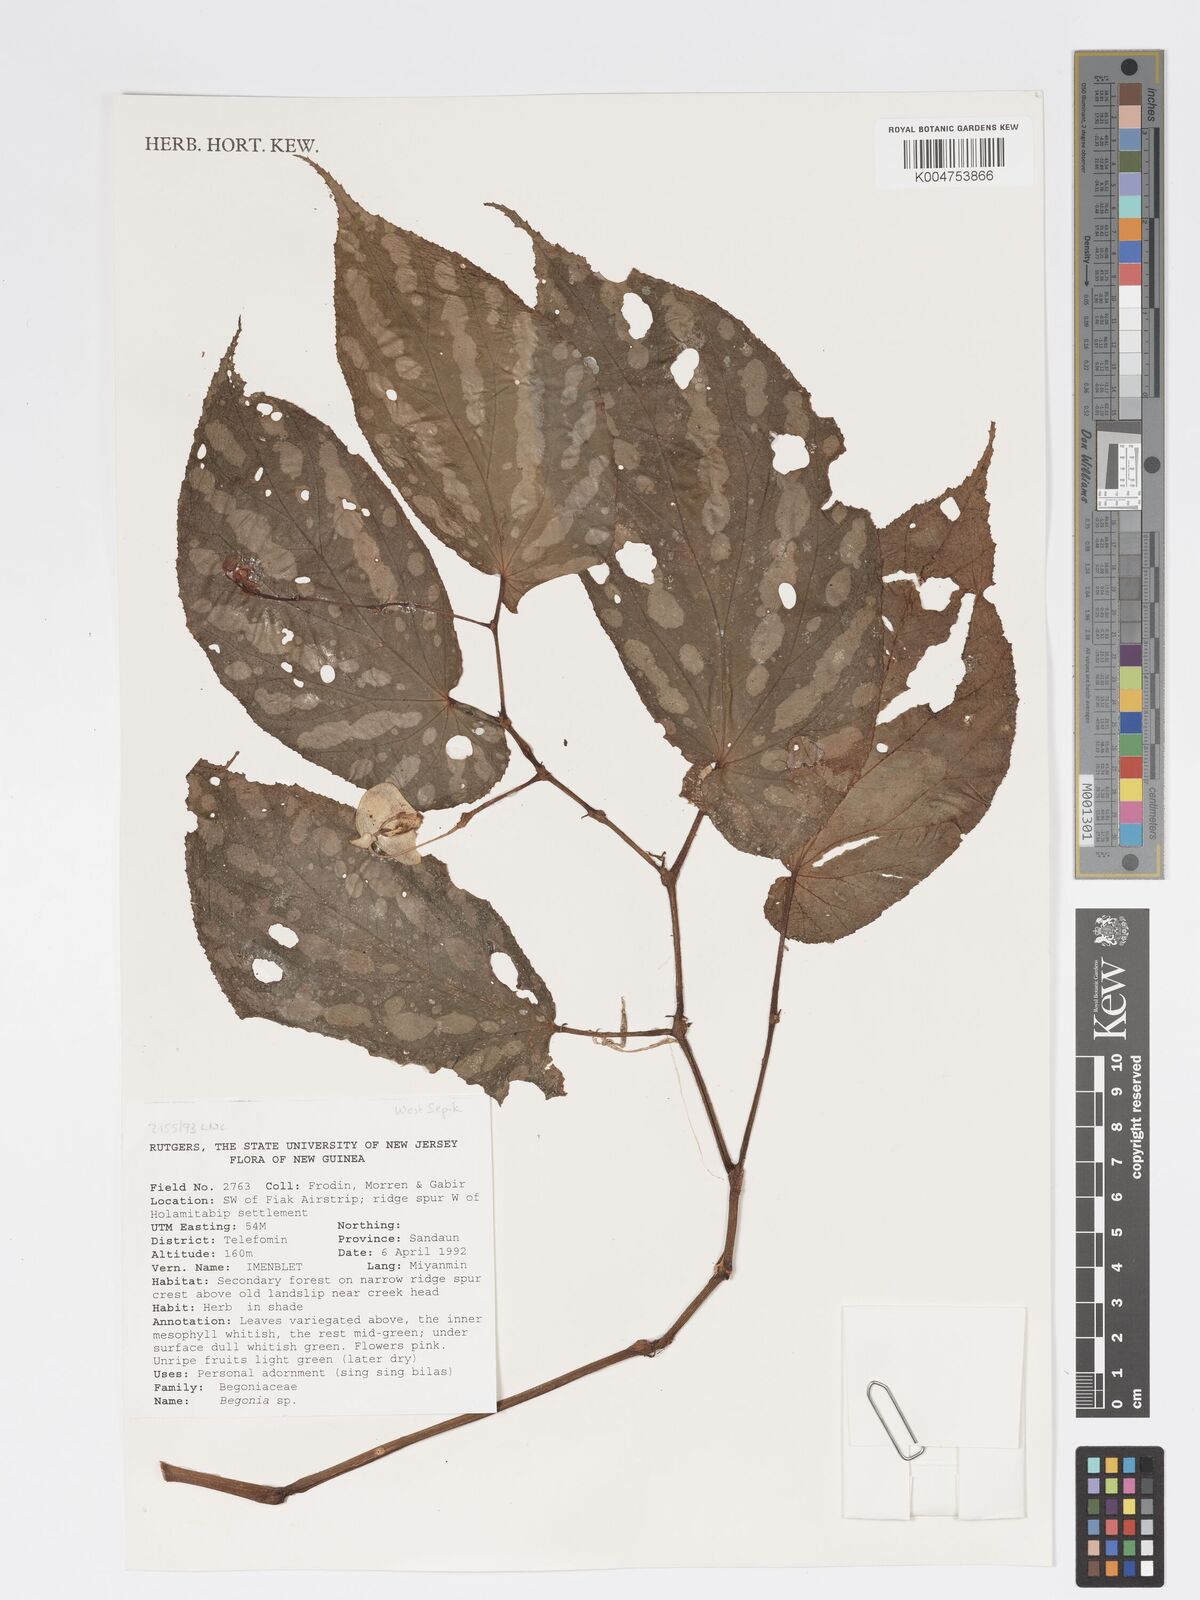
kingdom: Plantae
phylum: Tracheophyta
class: Magnoliopsida
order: Cucurbitales
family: Begoniaceae
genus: Begonia
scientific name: Begonia
